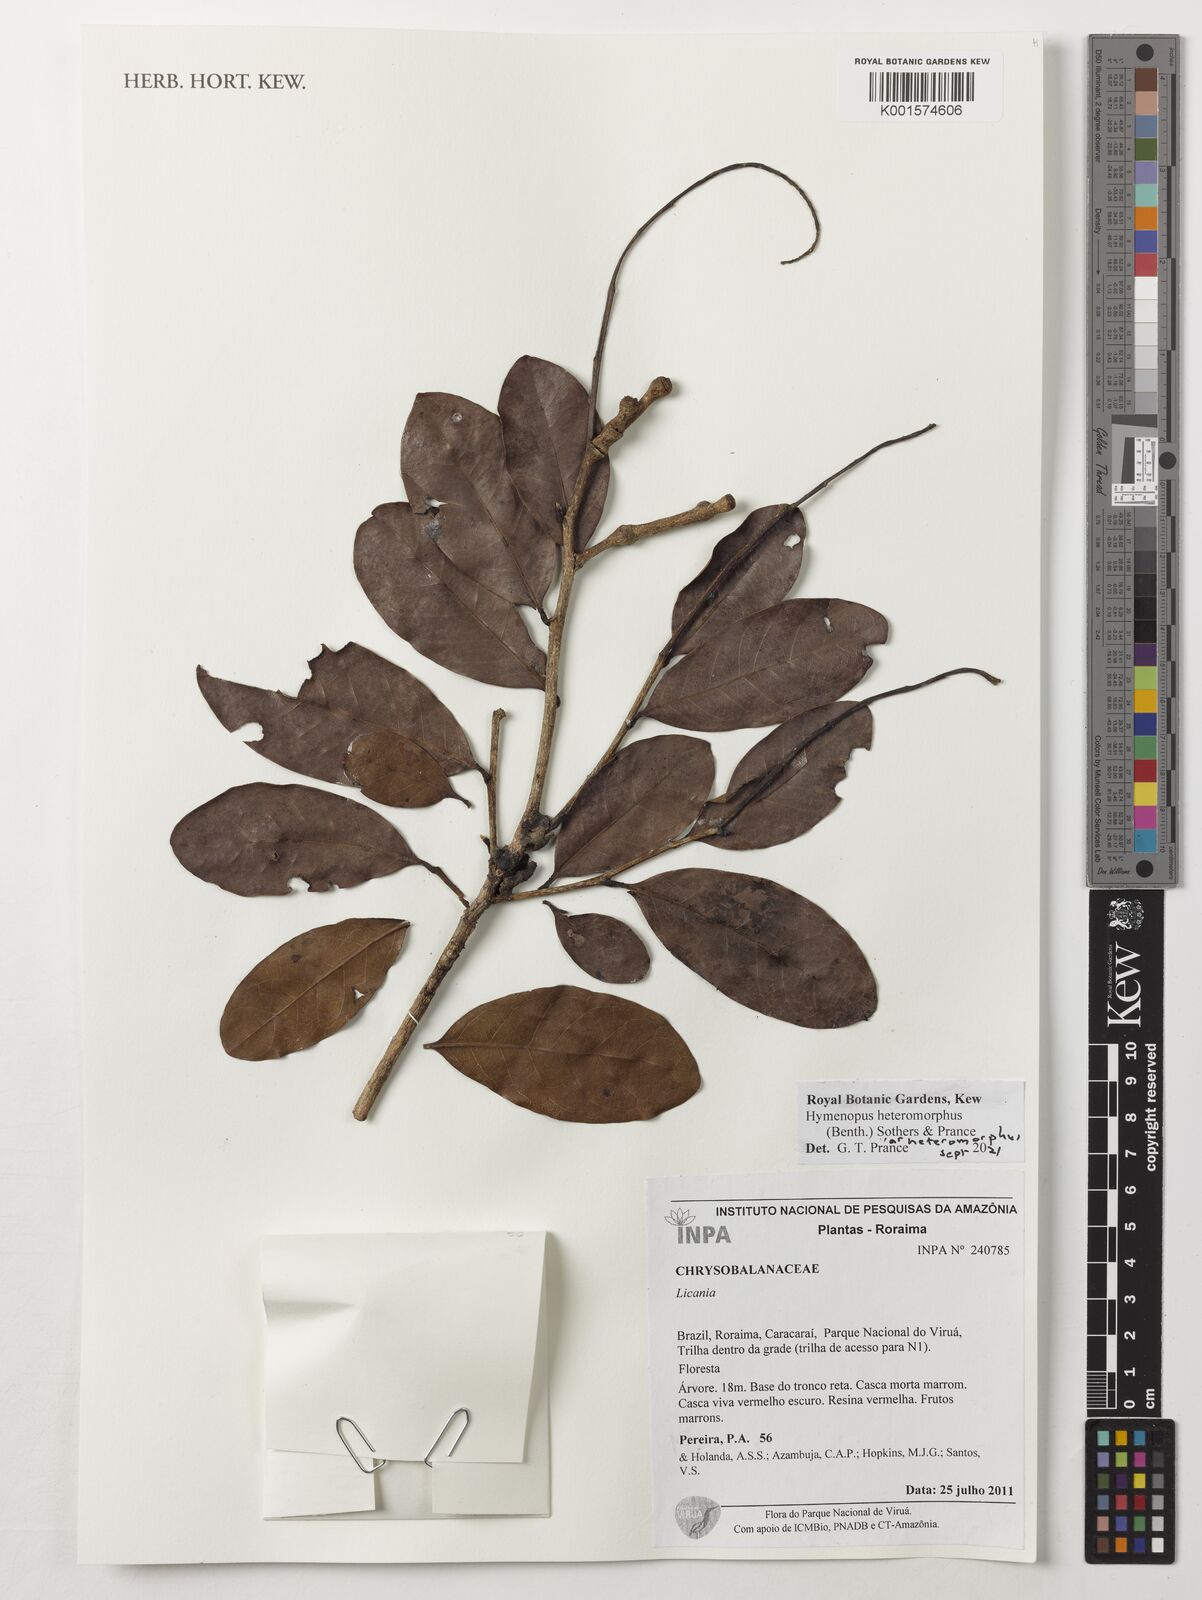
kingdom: Plantae
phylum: Tracheophyta
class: Magnoliopsida
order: Malpighiales
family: Chrysobalanaceae
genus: Hymenopus
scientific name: Hymenopus heteromorphus
